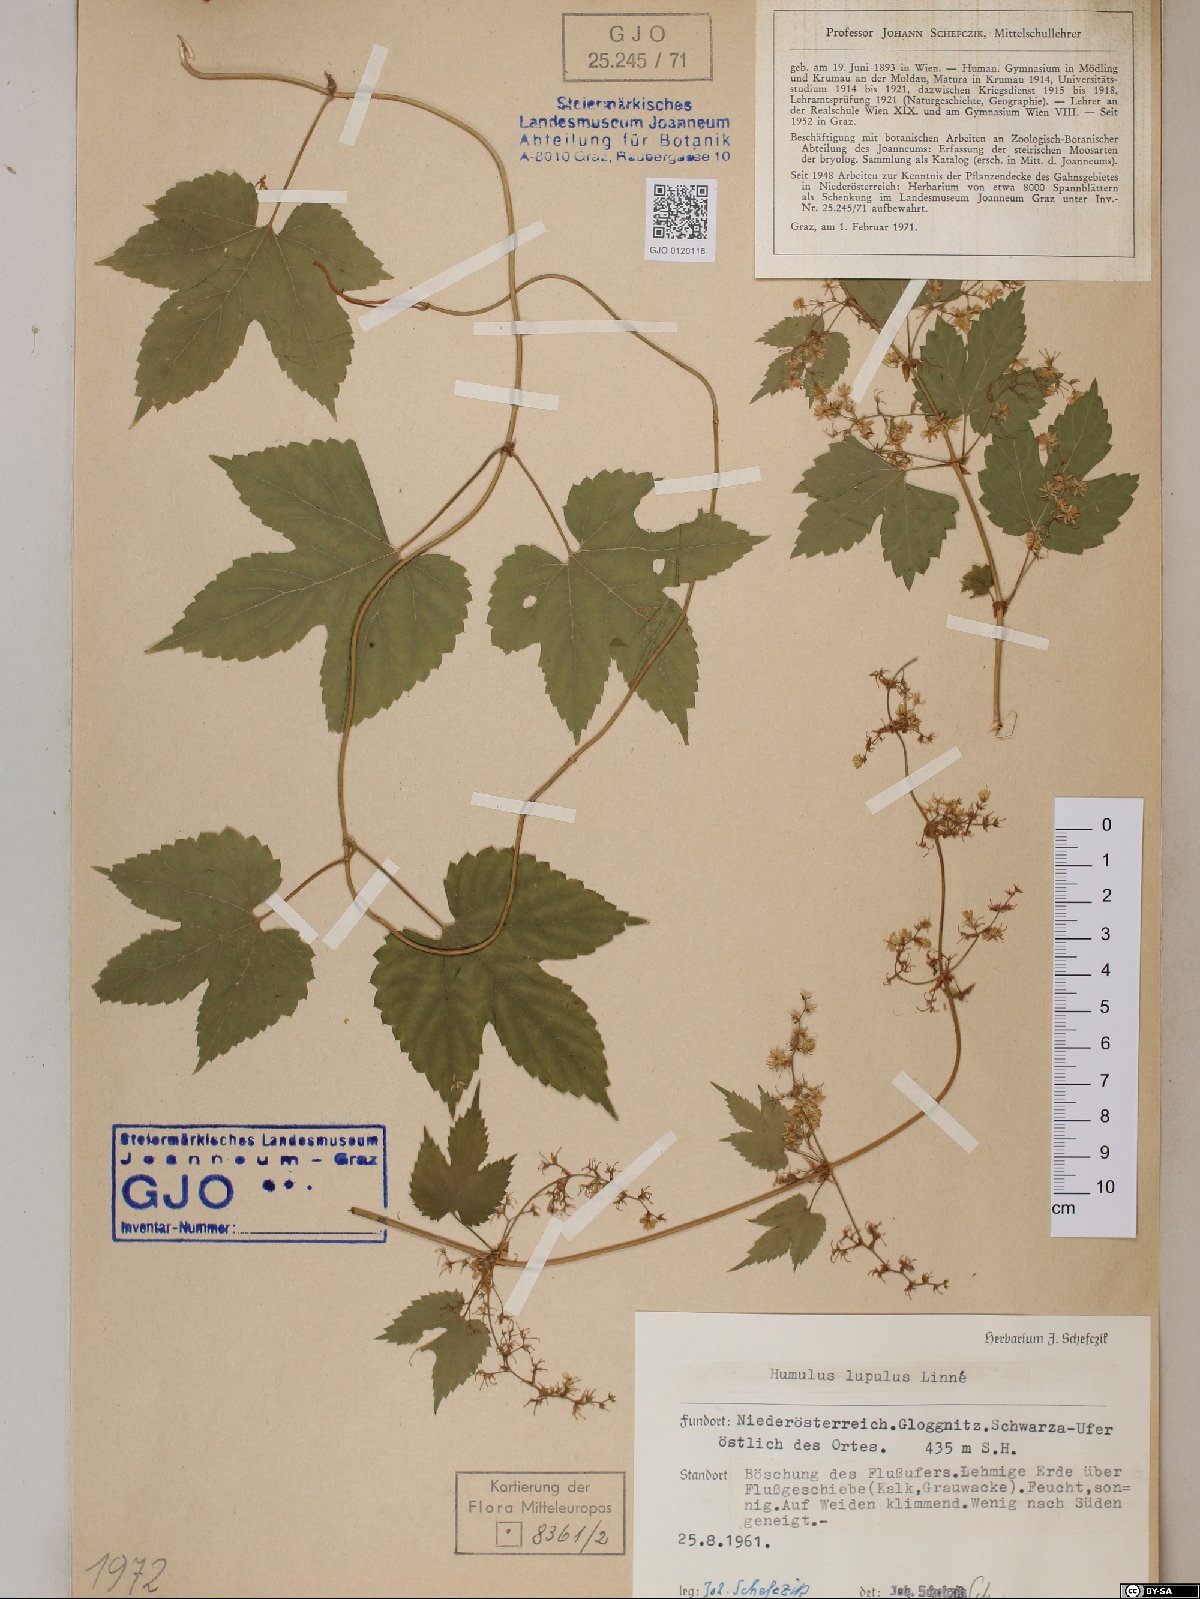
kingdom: Plantae
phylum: Tracheophyta
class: Magnoliopsida
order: Rosales
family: Cannabaceae
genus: Humulus
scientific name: Humulus lupulus
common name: Hop
